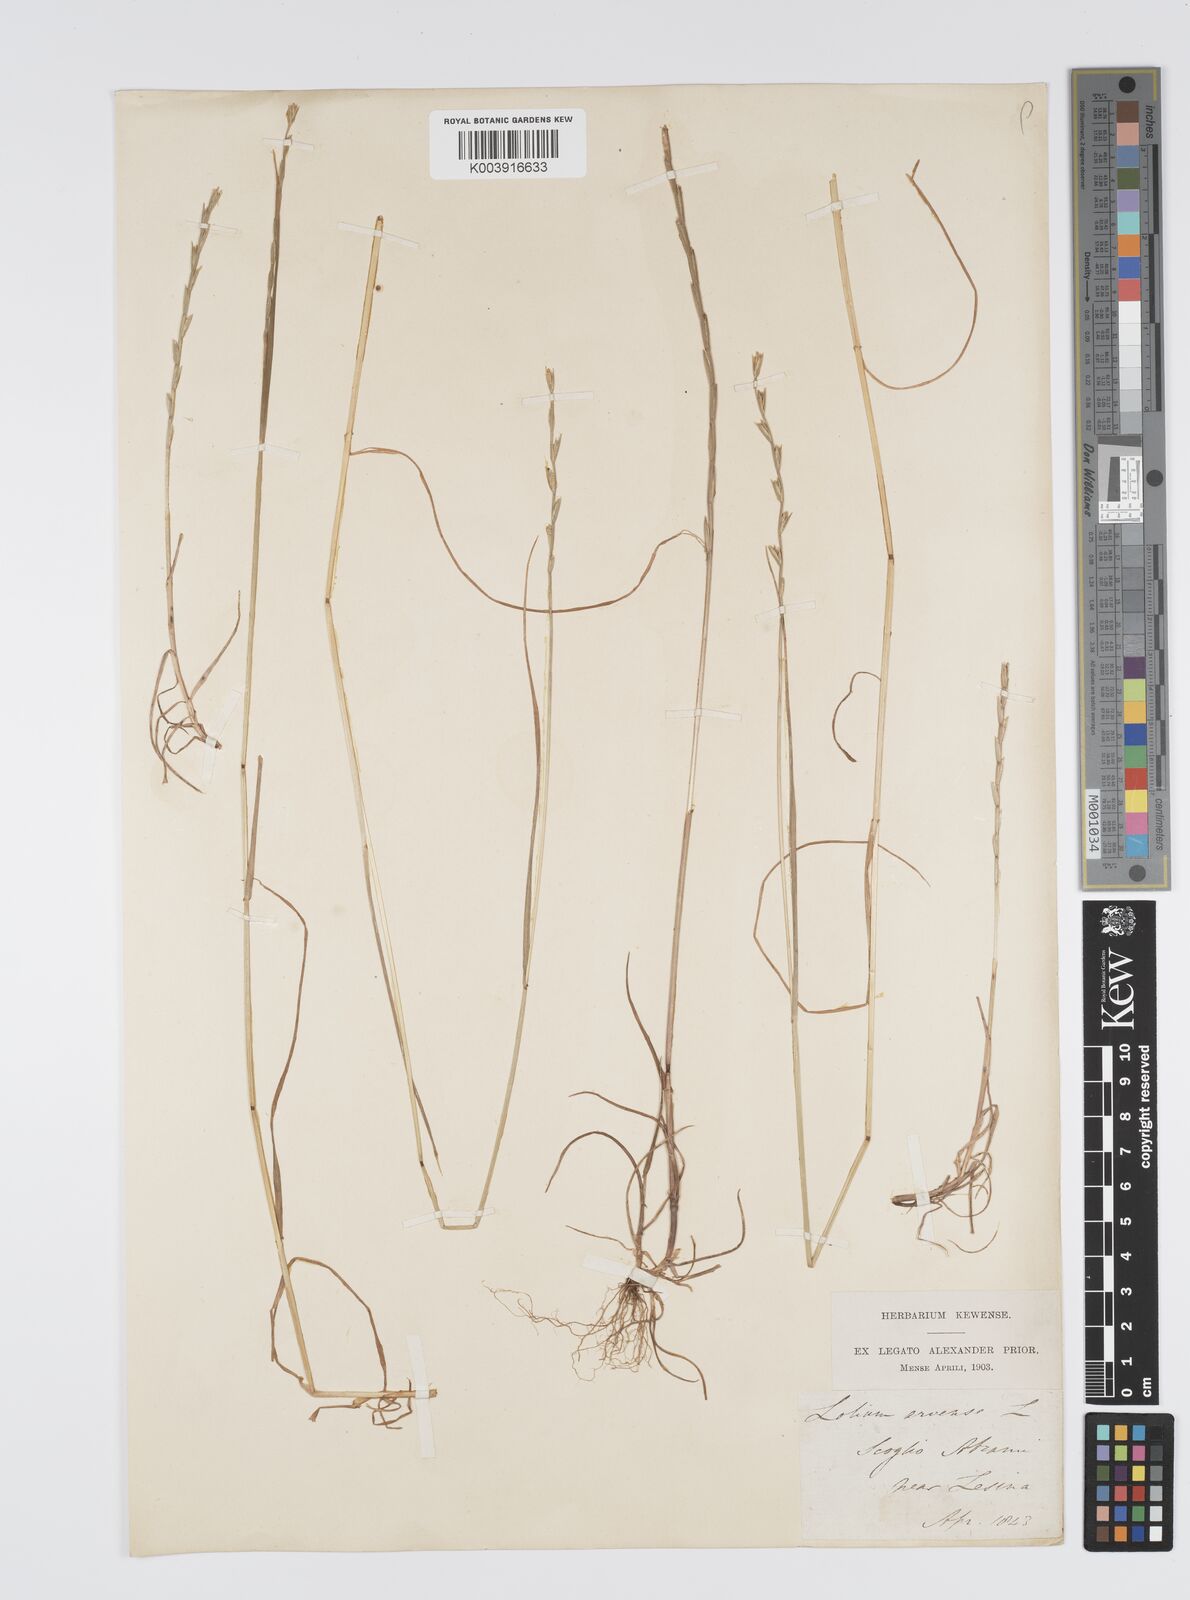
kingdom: Plantae
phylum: Tracheophyta
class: Liliopsida
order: Poales
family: Poaceae
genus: Lolium
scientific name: Lolium remotum
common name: Flaxfield rye-grass
